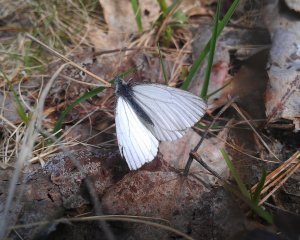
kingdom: Animalia
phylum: Arthropoda
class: Insecta
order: Lepidoptera
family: Pieridae
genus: Pieris
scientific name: Pieris oleracea
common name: Mustard White
